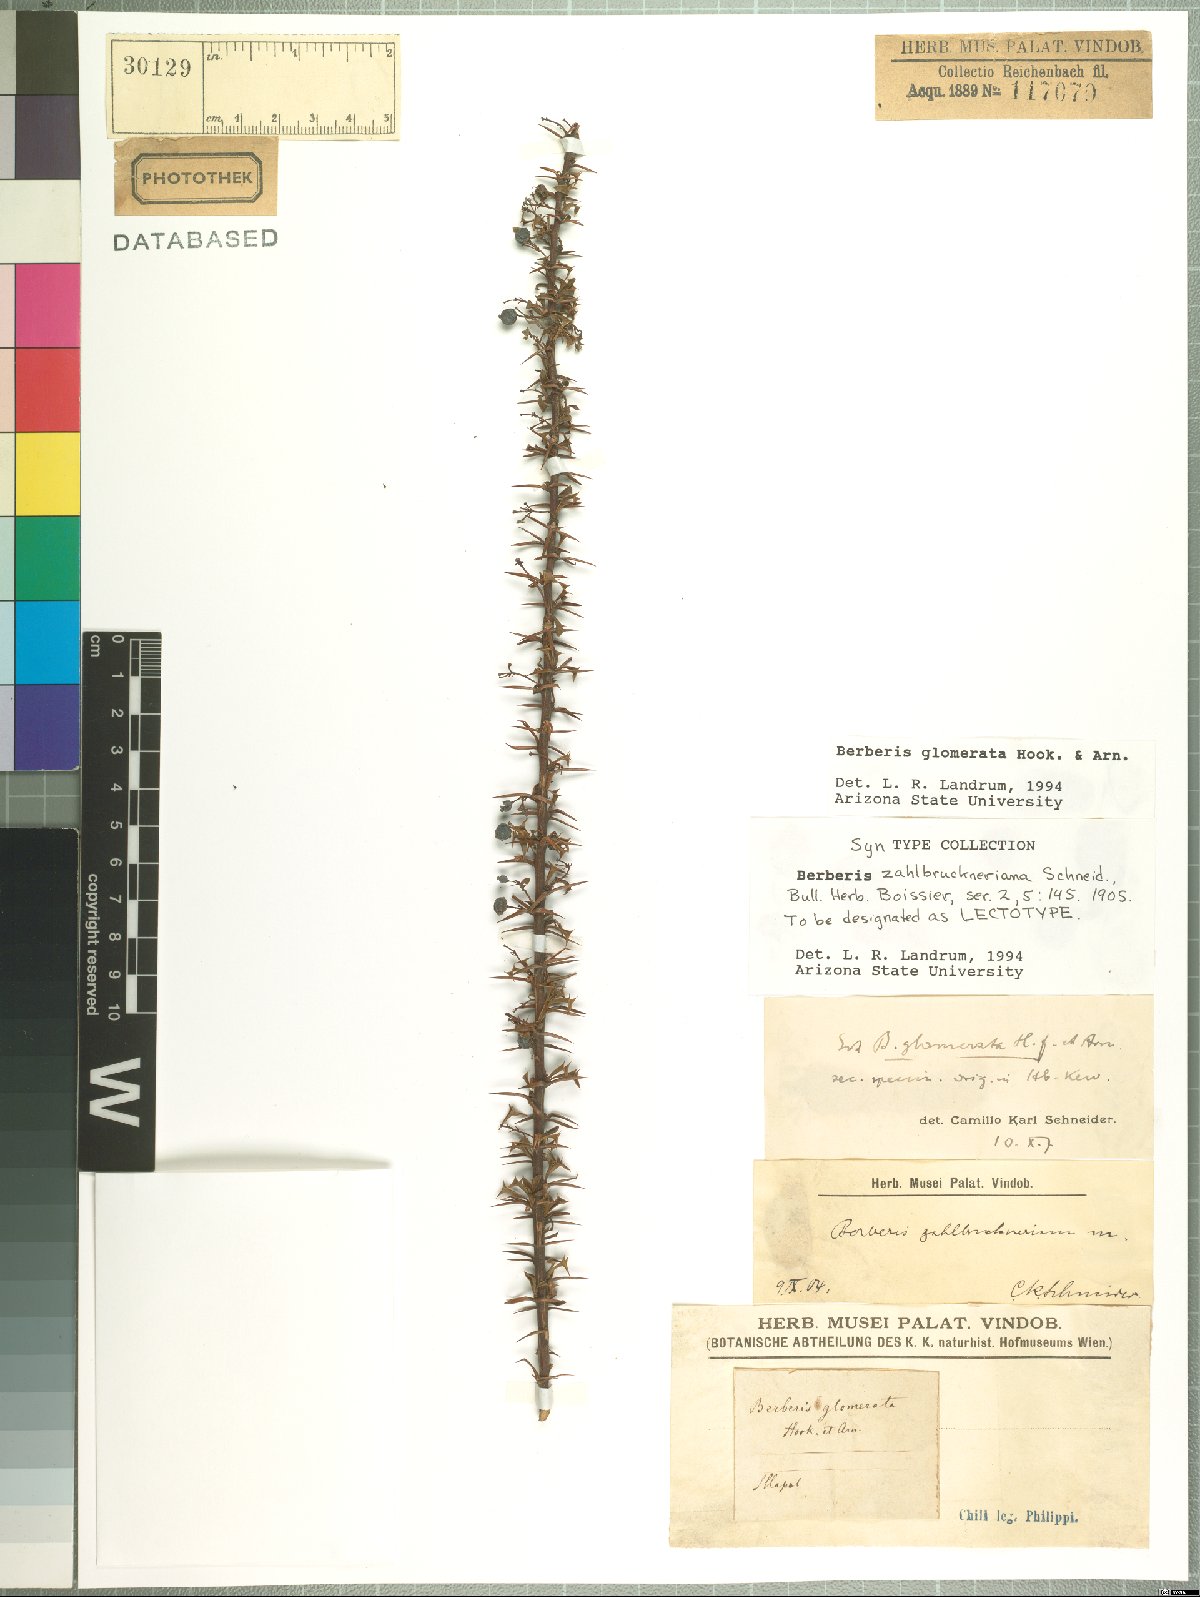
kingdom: Plantae
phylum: Tracheophyta
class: Magnoliopsida
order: Ranunculales
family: Berberidaceae
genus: Berberis
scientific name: Berberis glomerata
